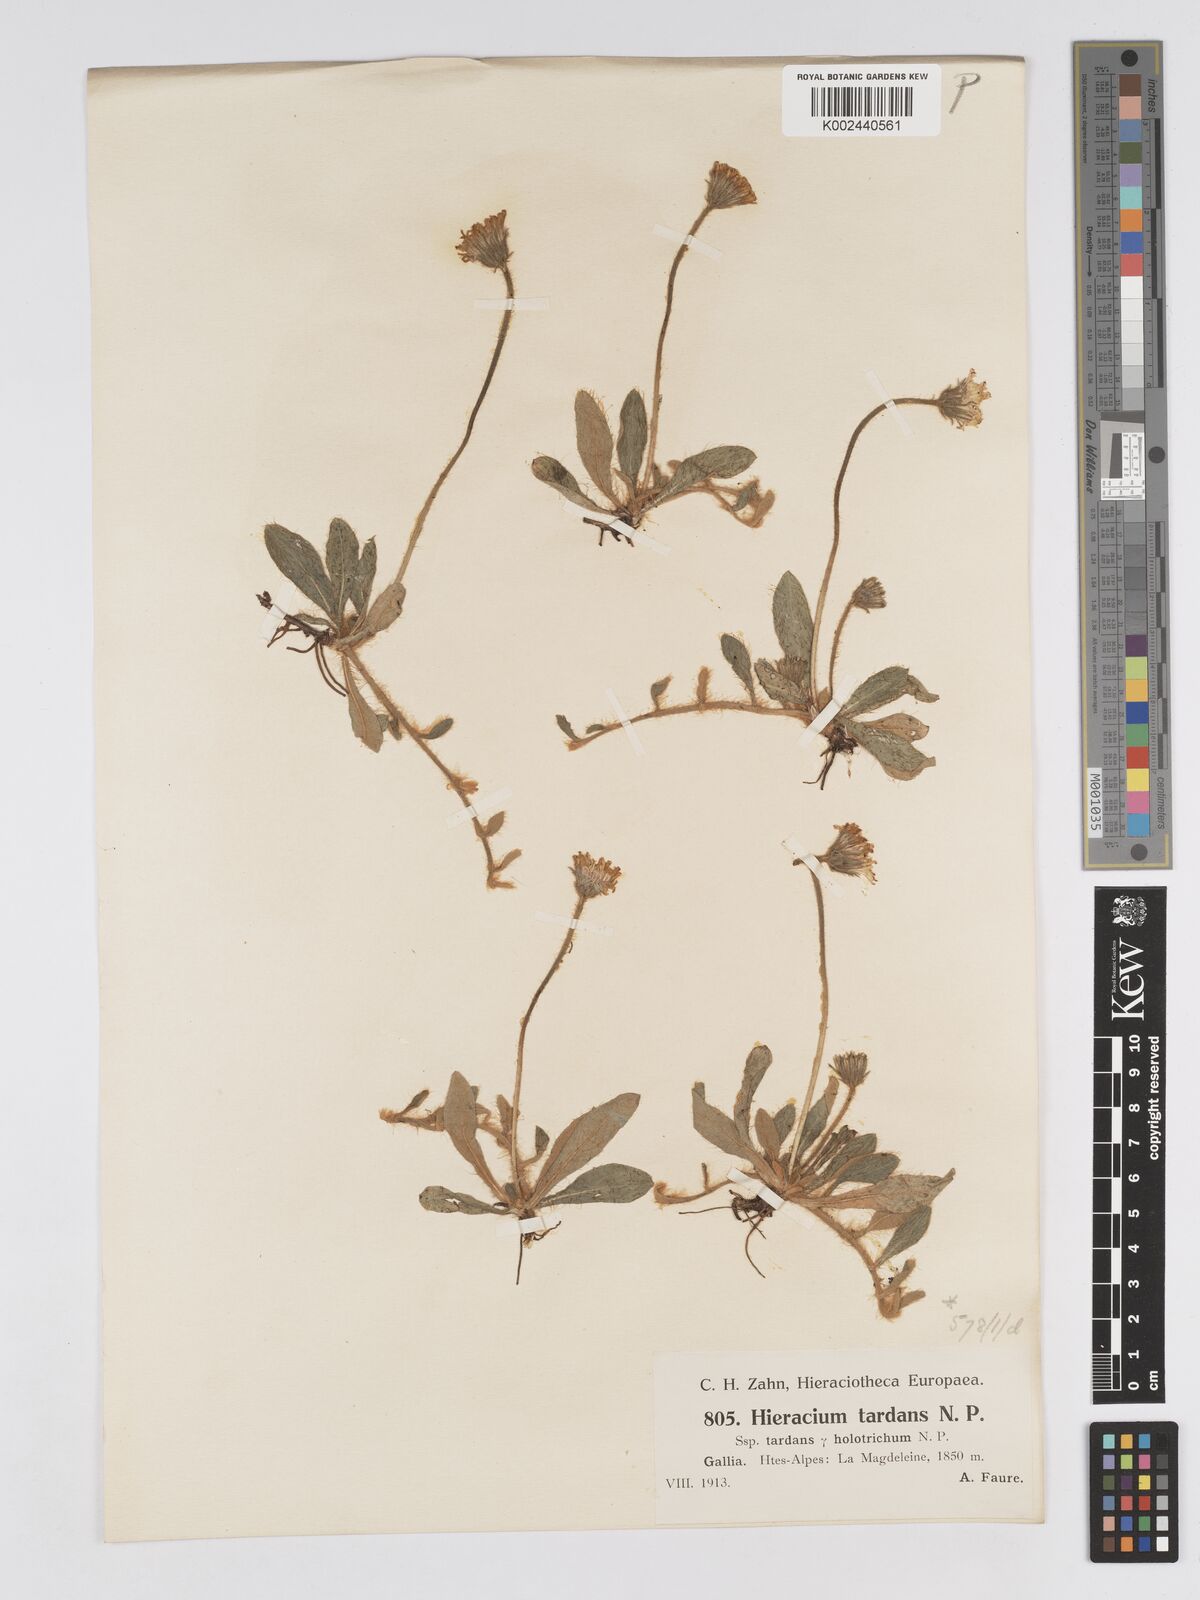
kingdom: Plantae
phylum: Tracheophyta
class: Magnoliopsida
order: Asterales
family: Asteraceae
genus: Pilosella
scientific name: Pilosella tardans
